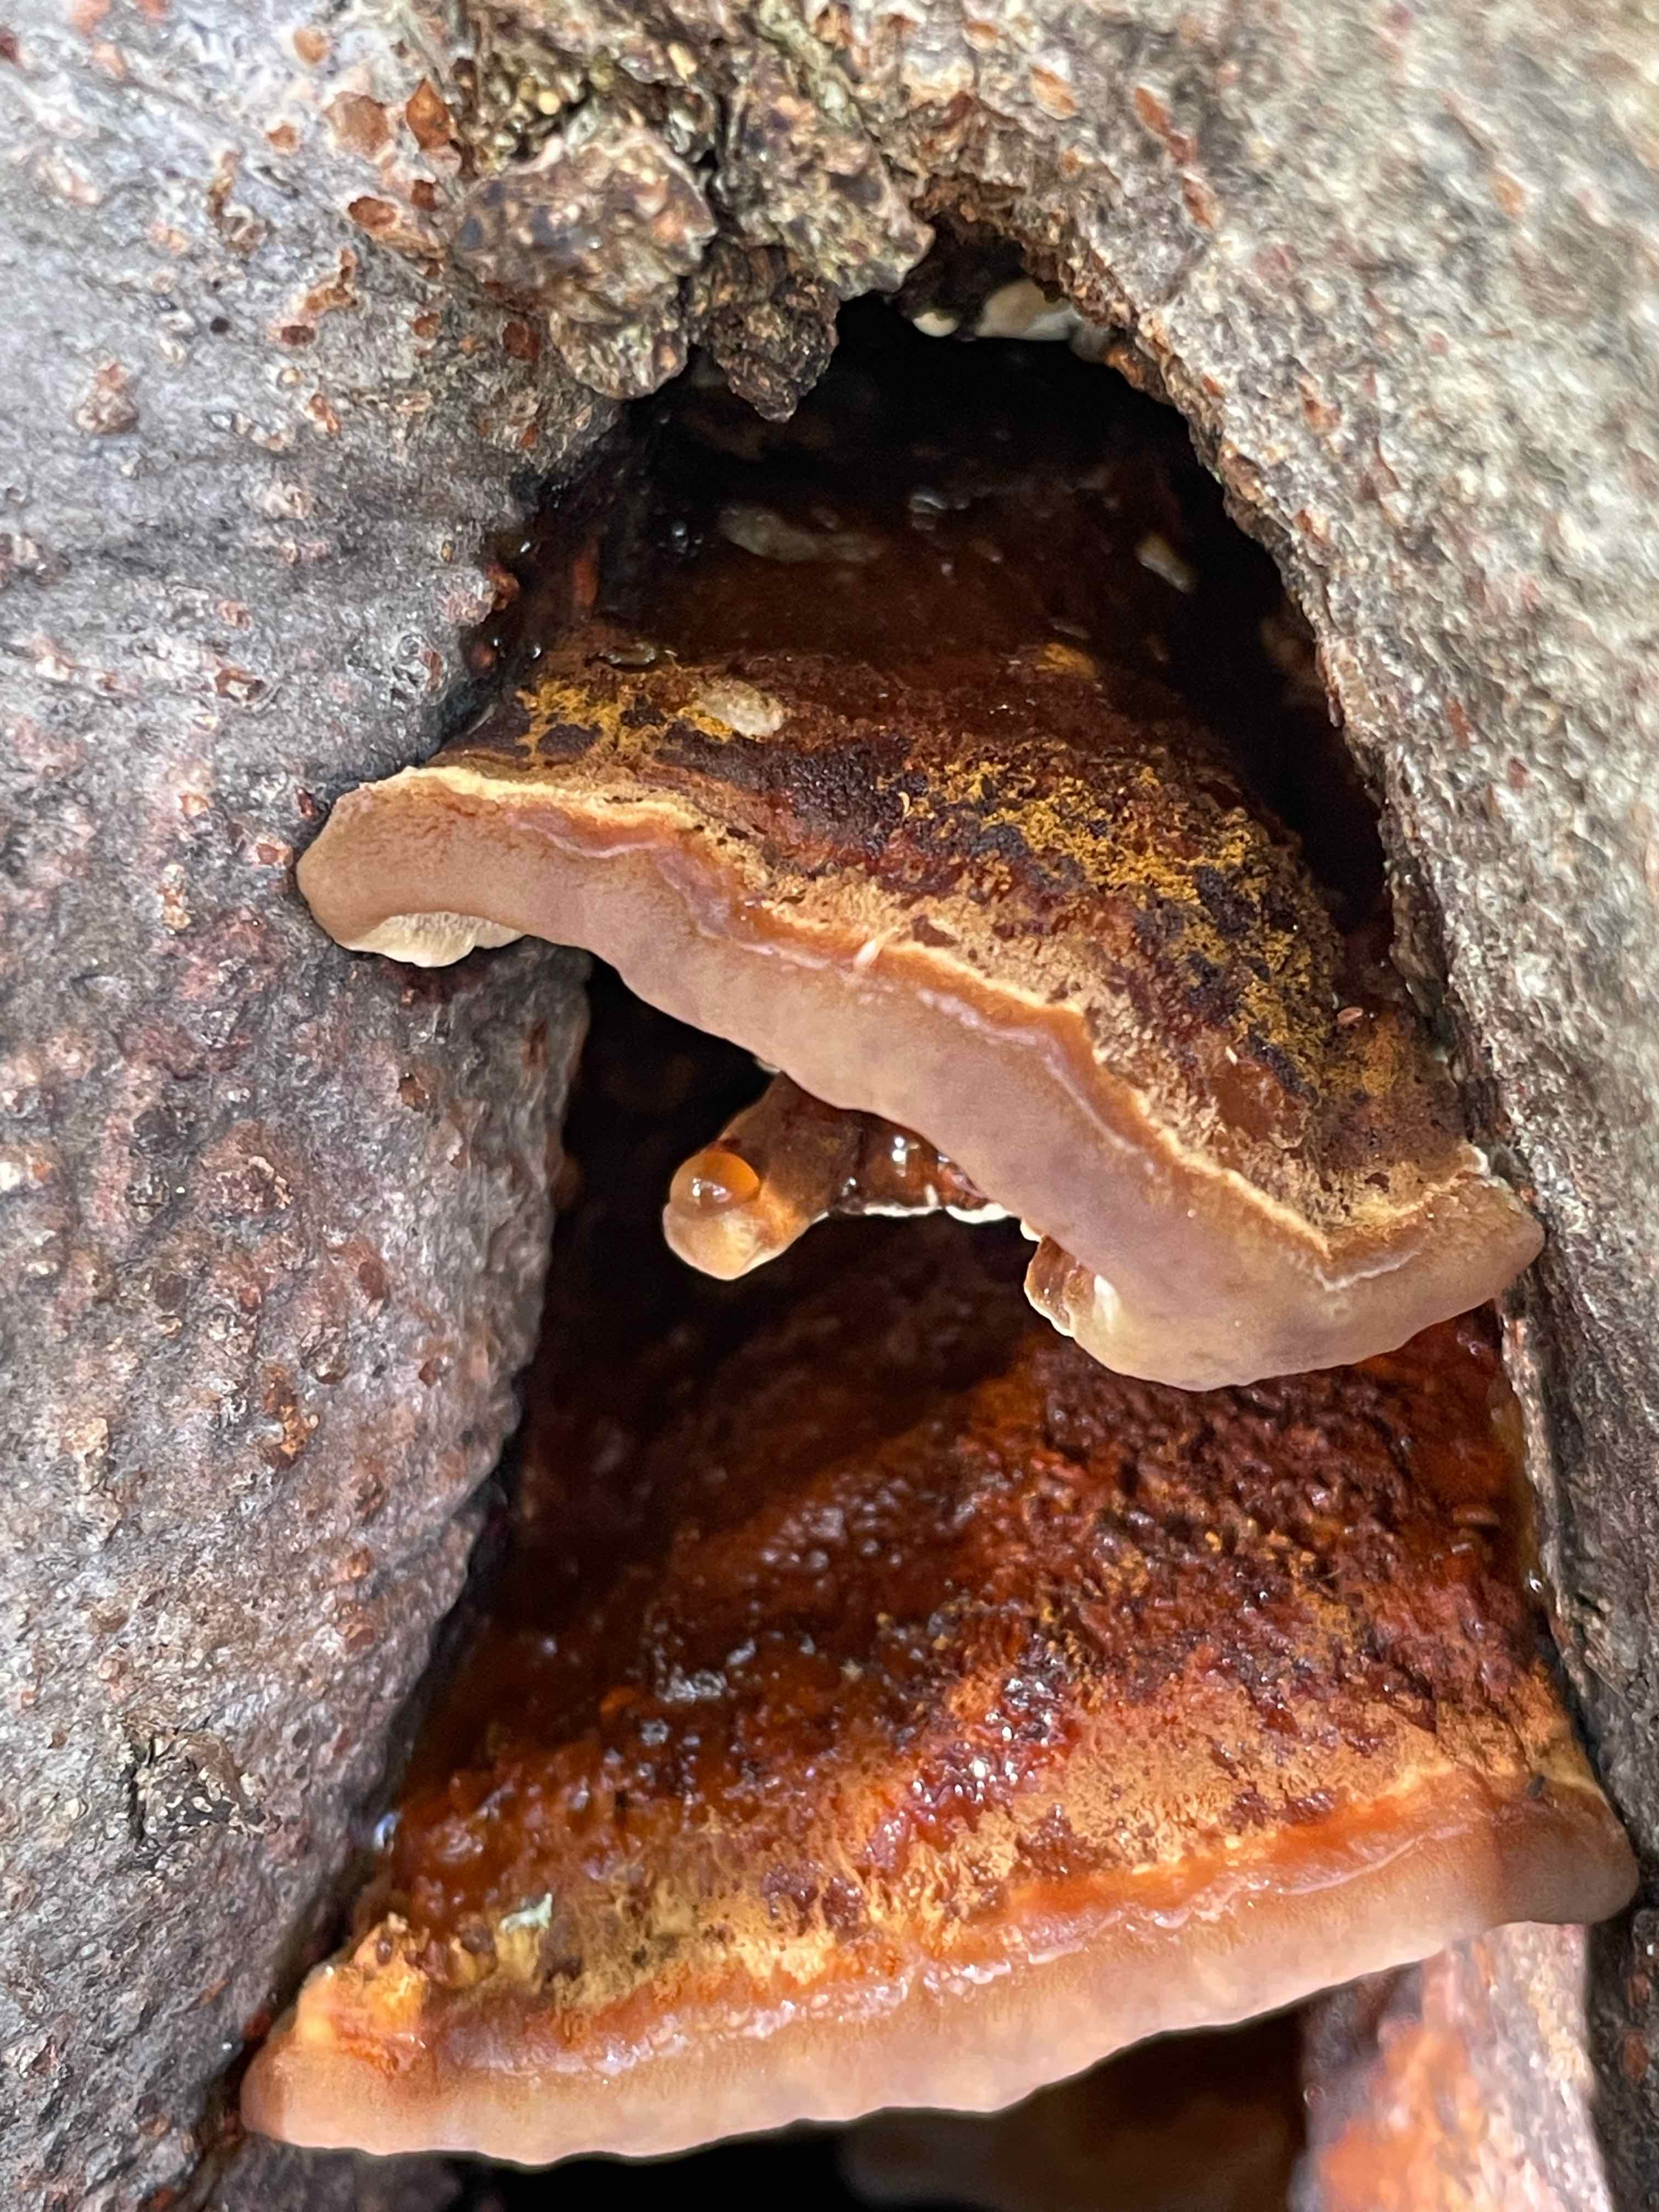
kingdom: Fungi
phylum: Basidiomycota
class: Agaricomycetes
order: Hymenochaetales
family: Hymenochaetaceae
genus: Inonotus
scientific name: Inonotus cuticularis
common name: kroghåret spejlporesvamp
